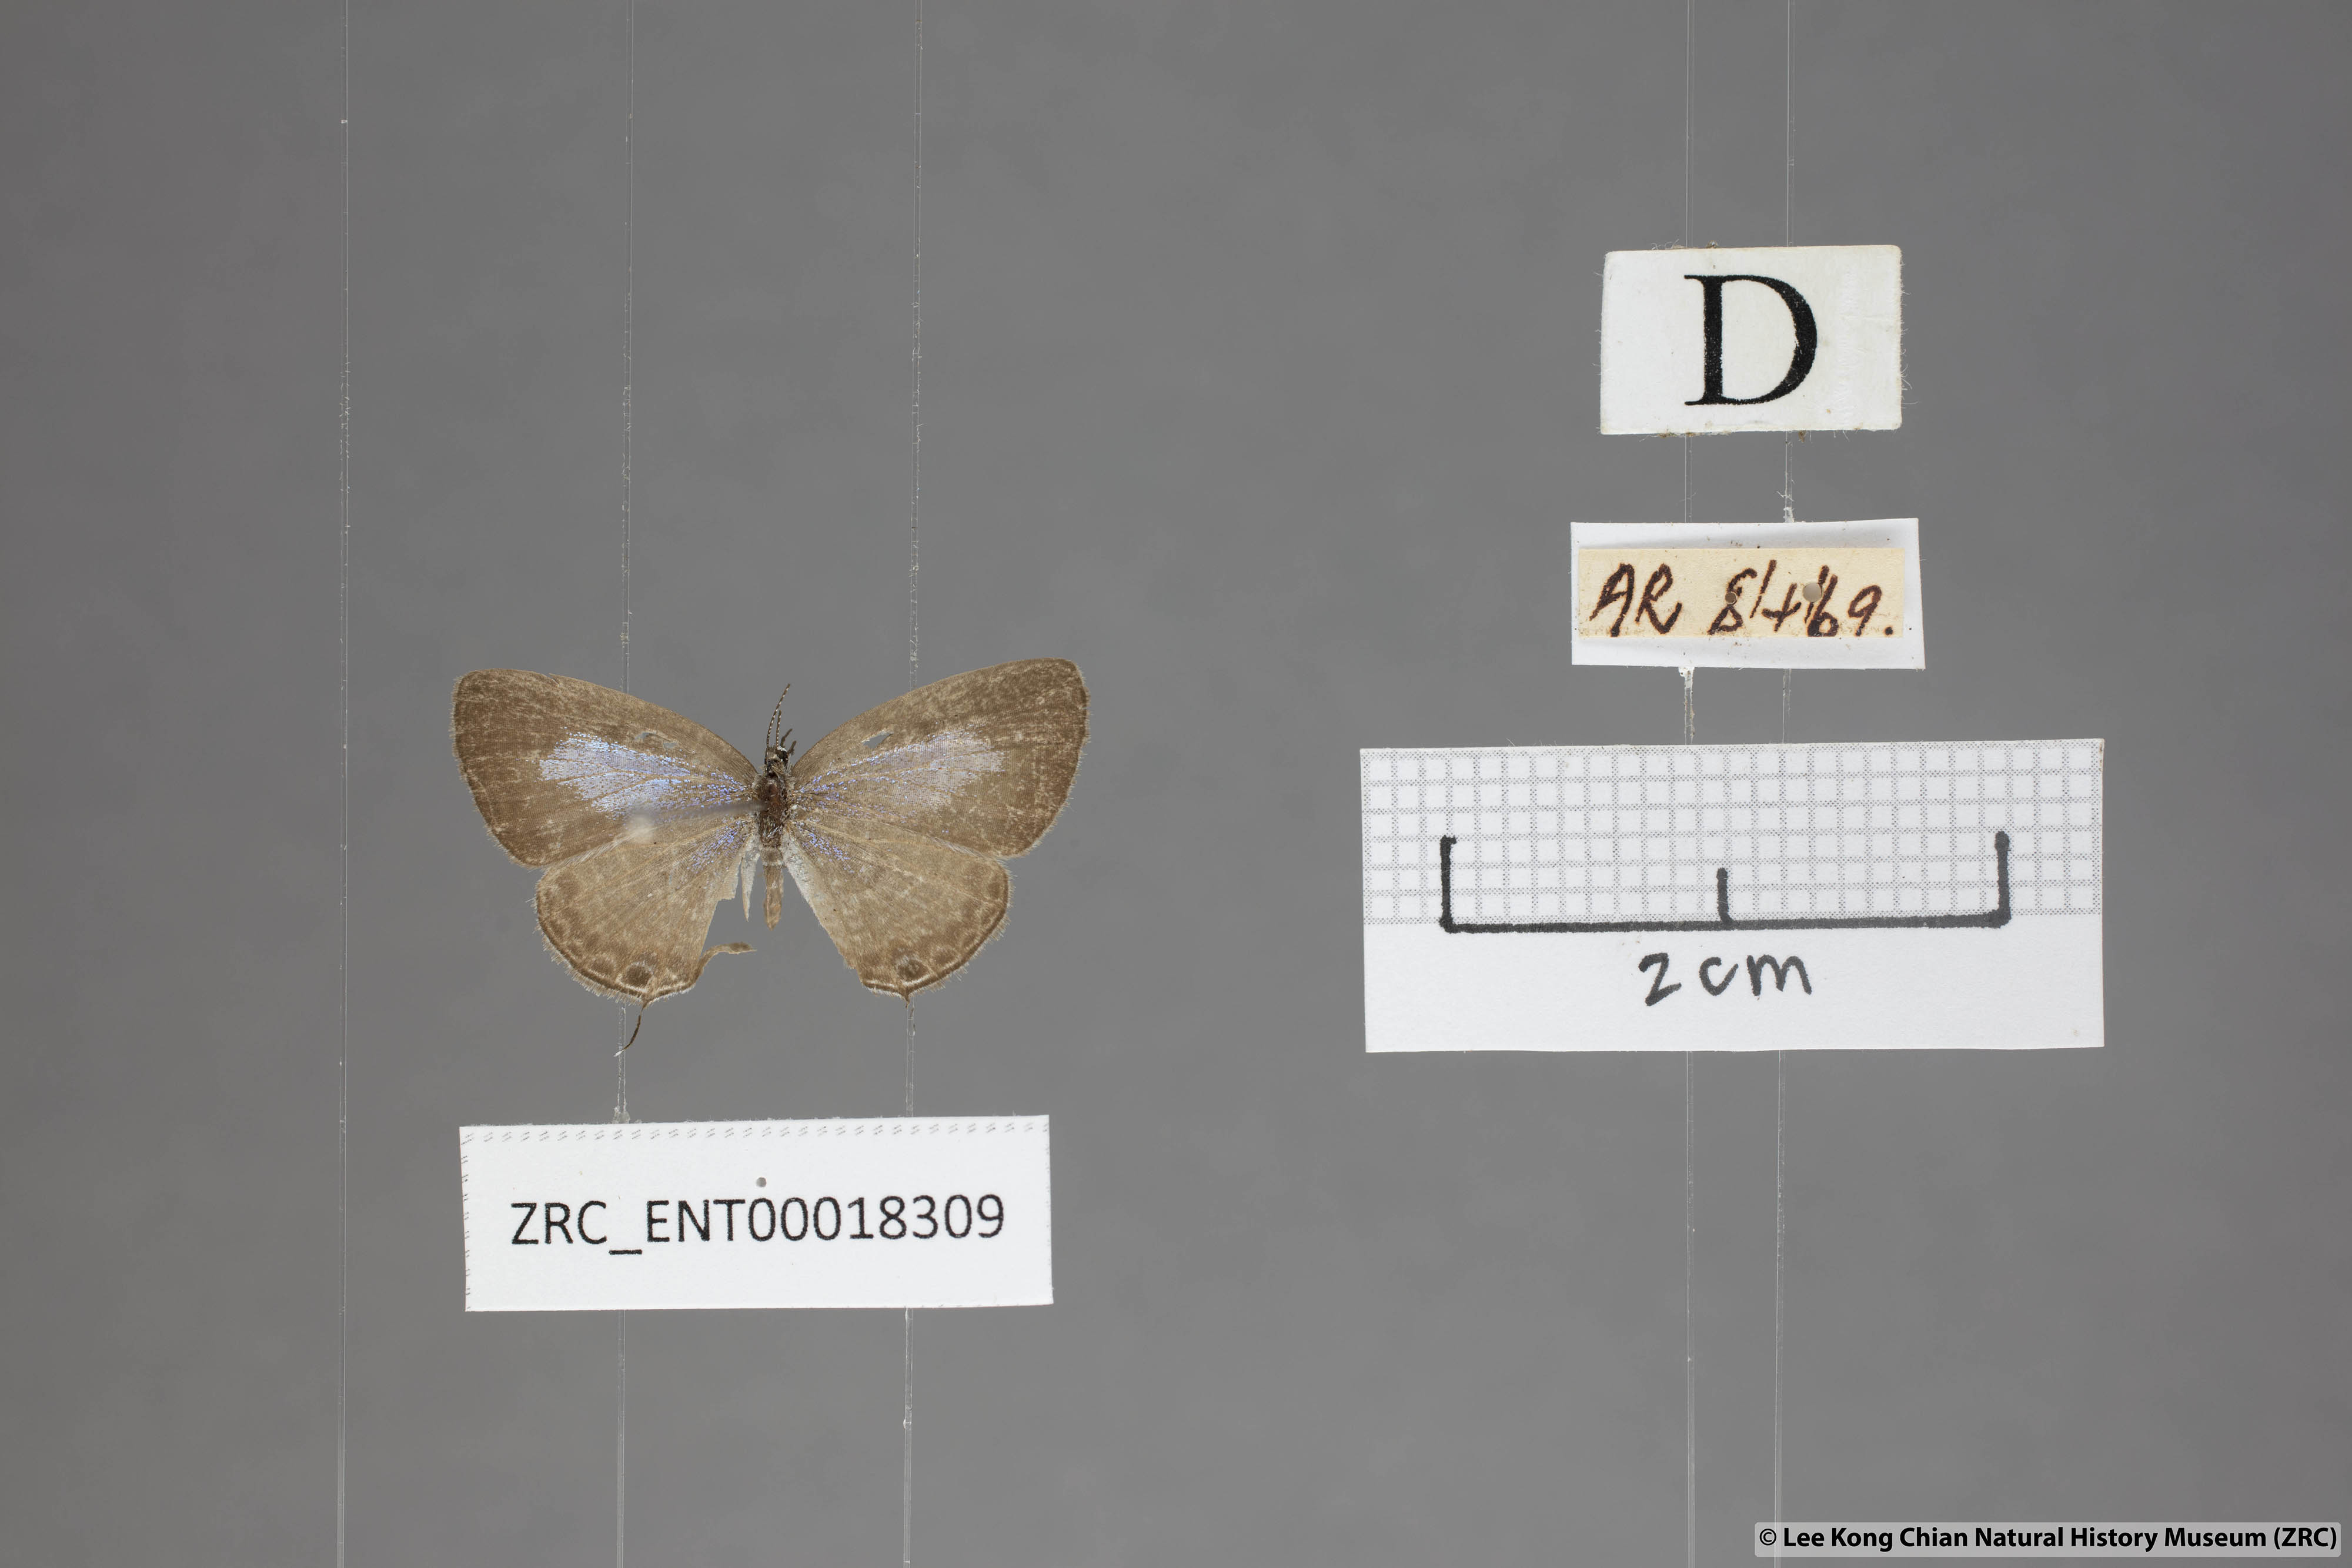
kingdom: Animalia
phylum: Arthropoda
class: Insecta
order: Lepidoptera
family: Lycaenidae
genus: Nacaduba
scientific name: Nacaduba berenice
